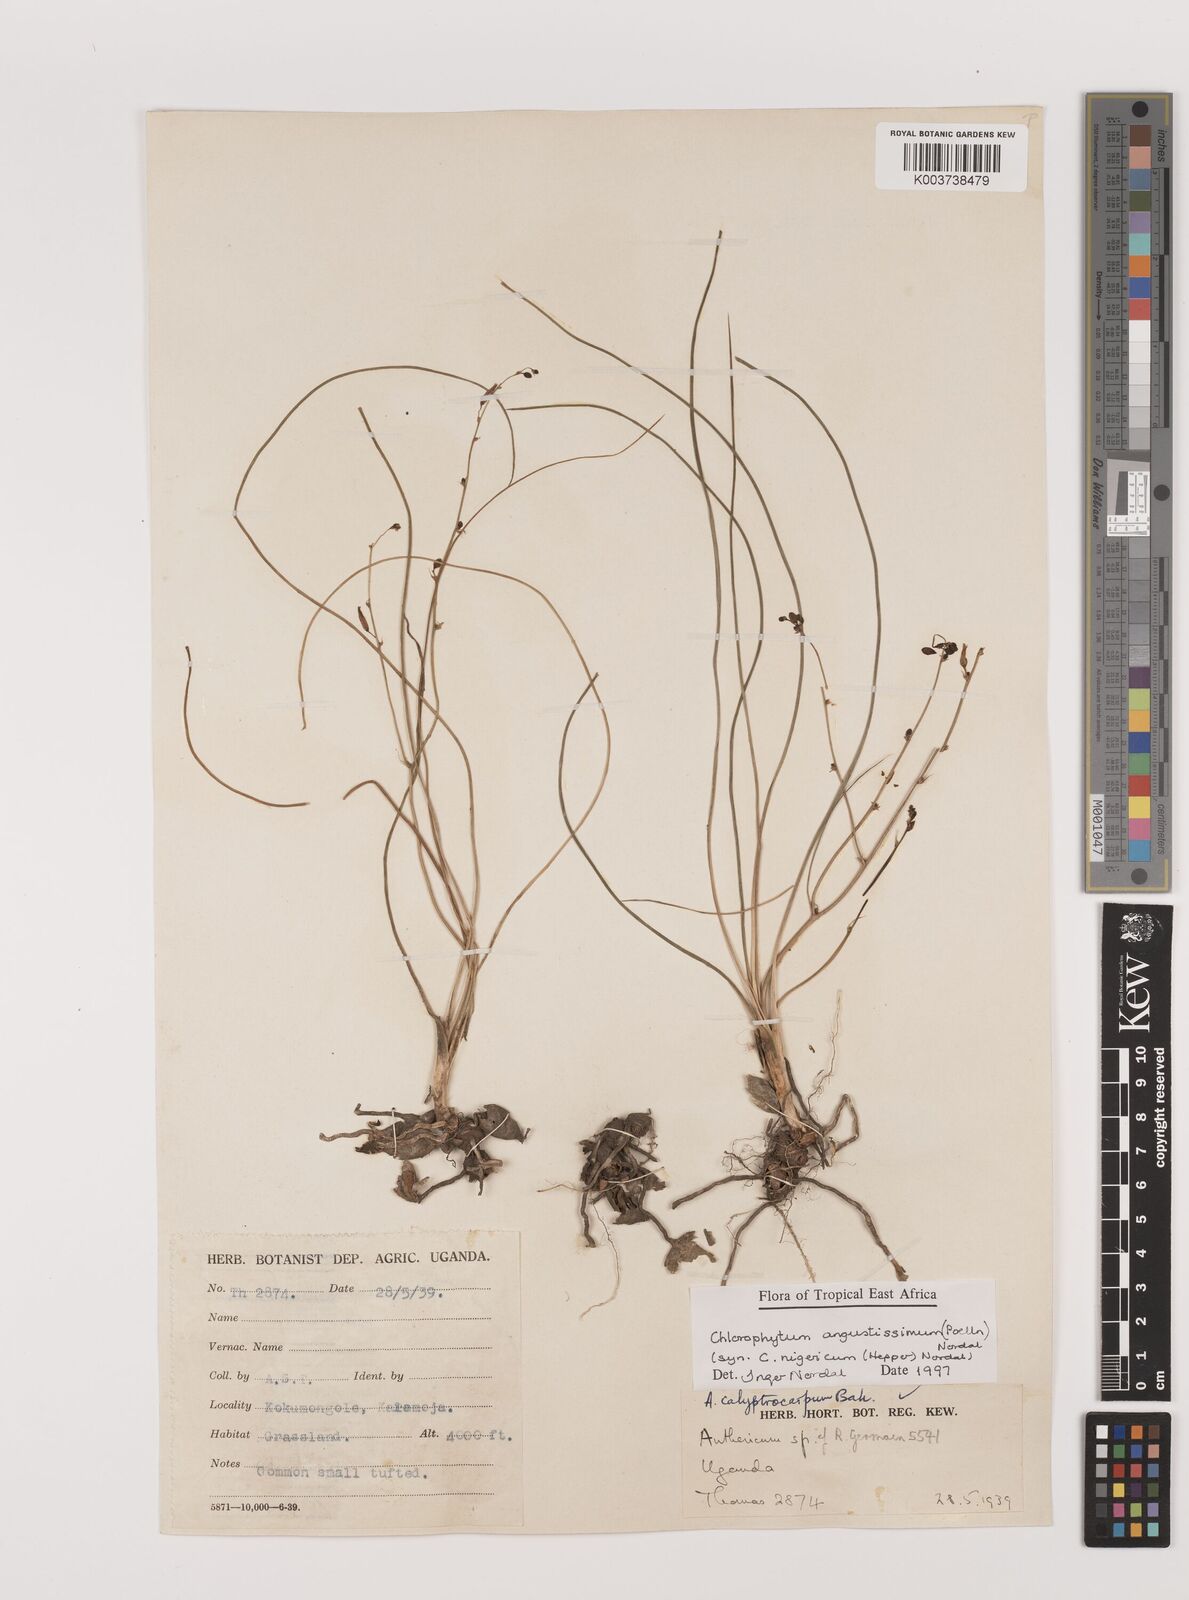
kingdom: Plantae
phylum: Tracheophyta
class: Liliopsida
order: Asparagales
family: Asparagaceae
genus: Chlorophytum
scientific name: Chlorophytum subpetiolatum
